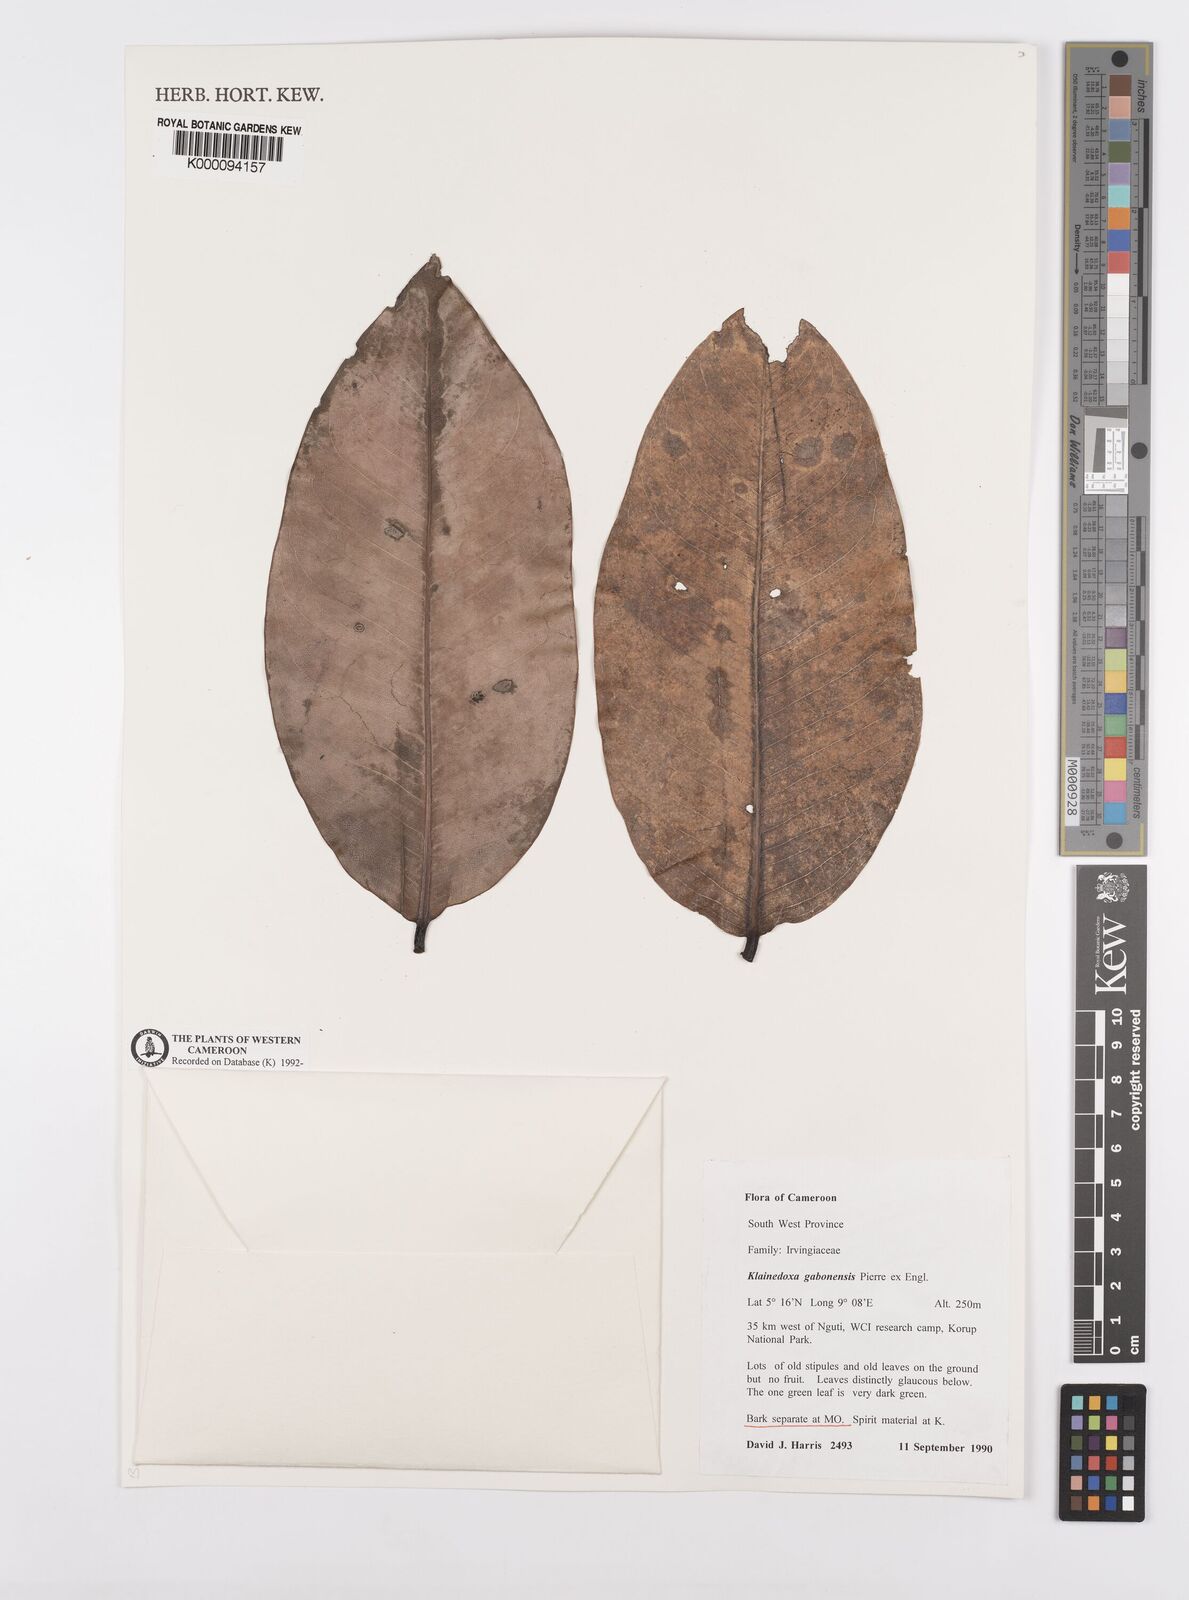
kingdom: Plantae
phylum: Tracheophyta
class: Magnoliopsida
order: Malpighiales
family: Irvingiaceae
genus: Klainedoxa
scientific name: Klainedoxa gabonensis
